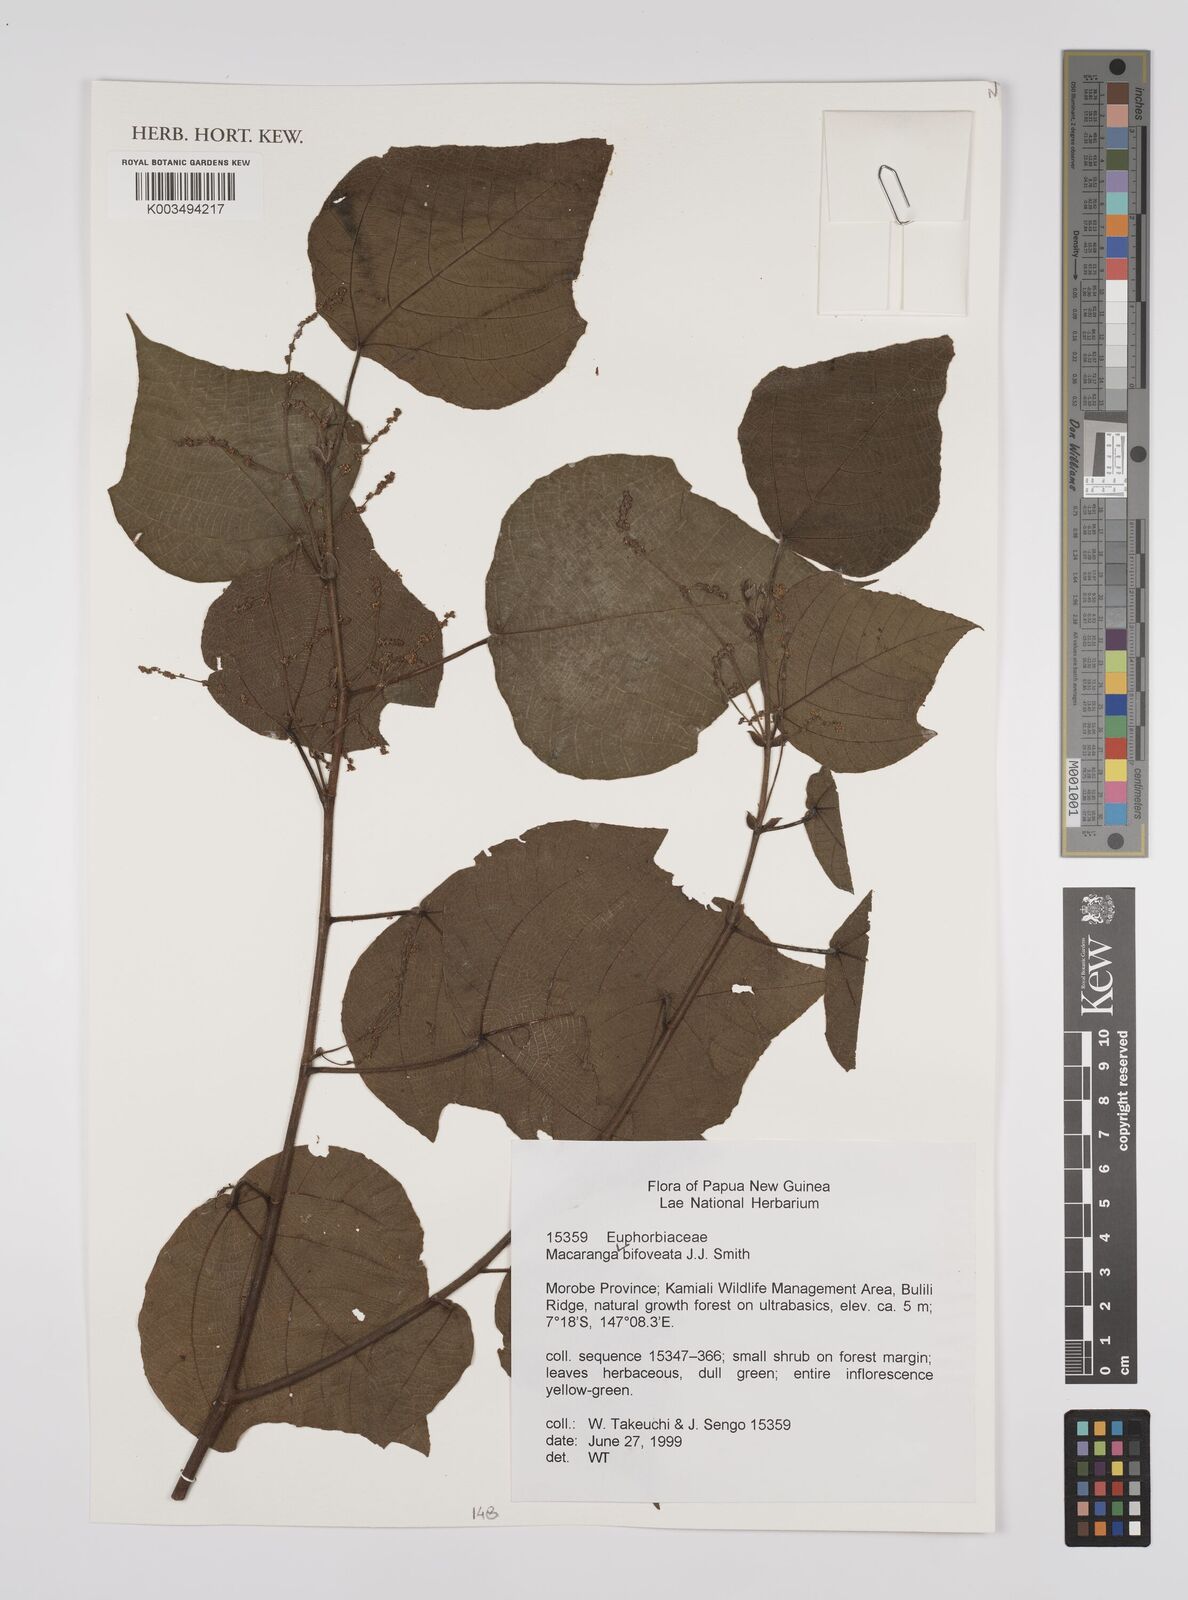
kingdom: Plantae
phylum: Tracheophyta
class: Magnoliopsida
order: Malpighiales
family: Euphorbiaceae
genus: Macaranga
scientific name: Macaranga bifoveata
